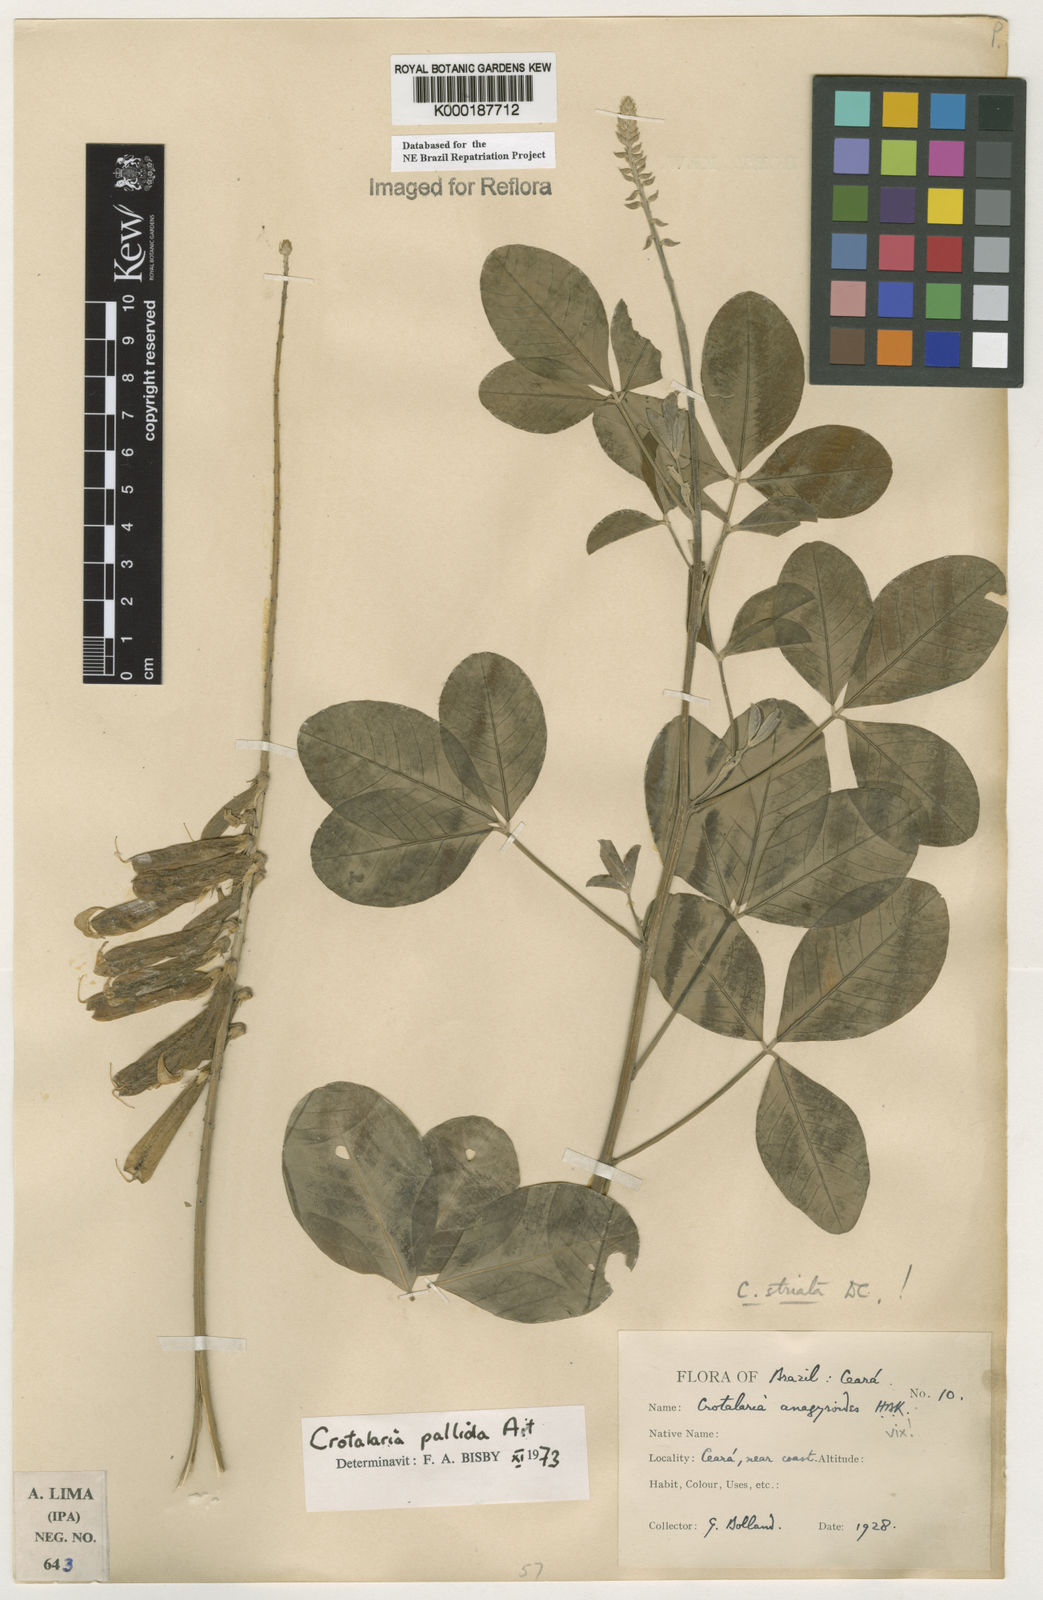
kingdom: Plantae
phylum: Tracheophyta
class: Magnoliopsida
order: Fabales
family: Fabaceae
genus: Crotalaria
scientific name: Crotalaria pallida
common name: Smooth rattlebox
